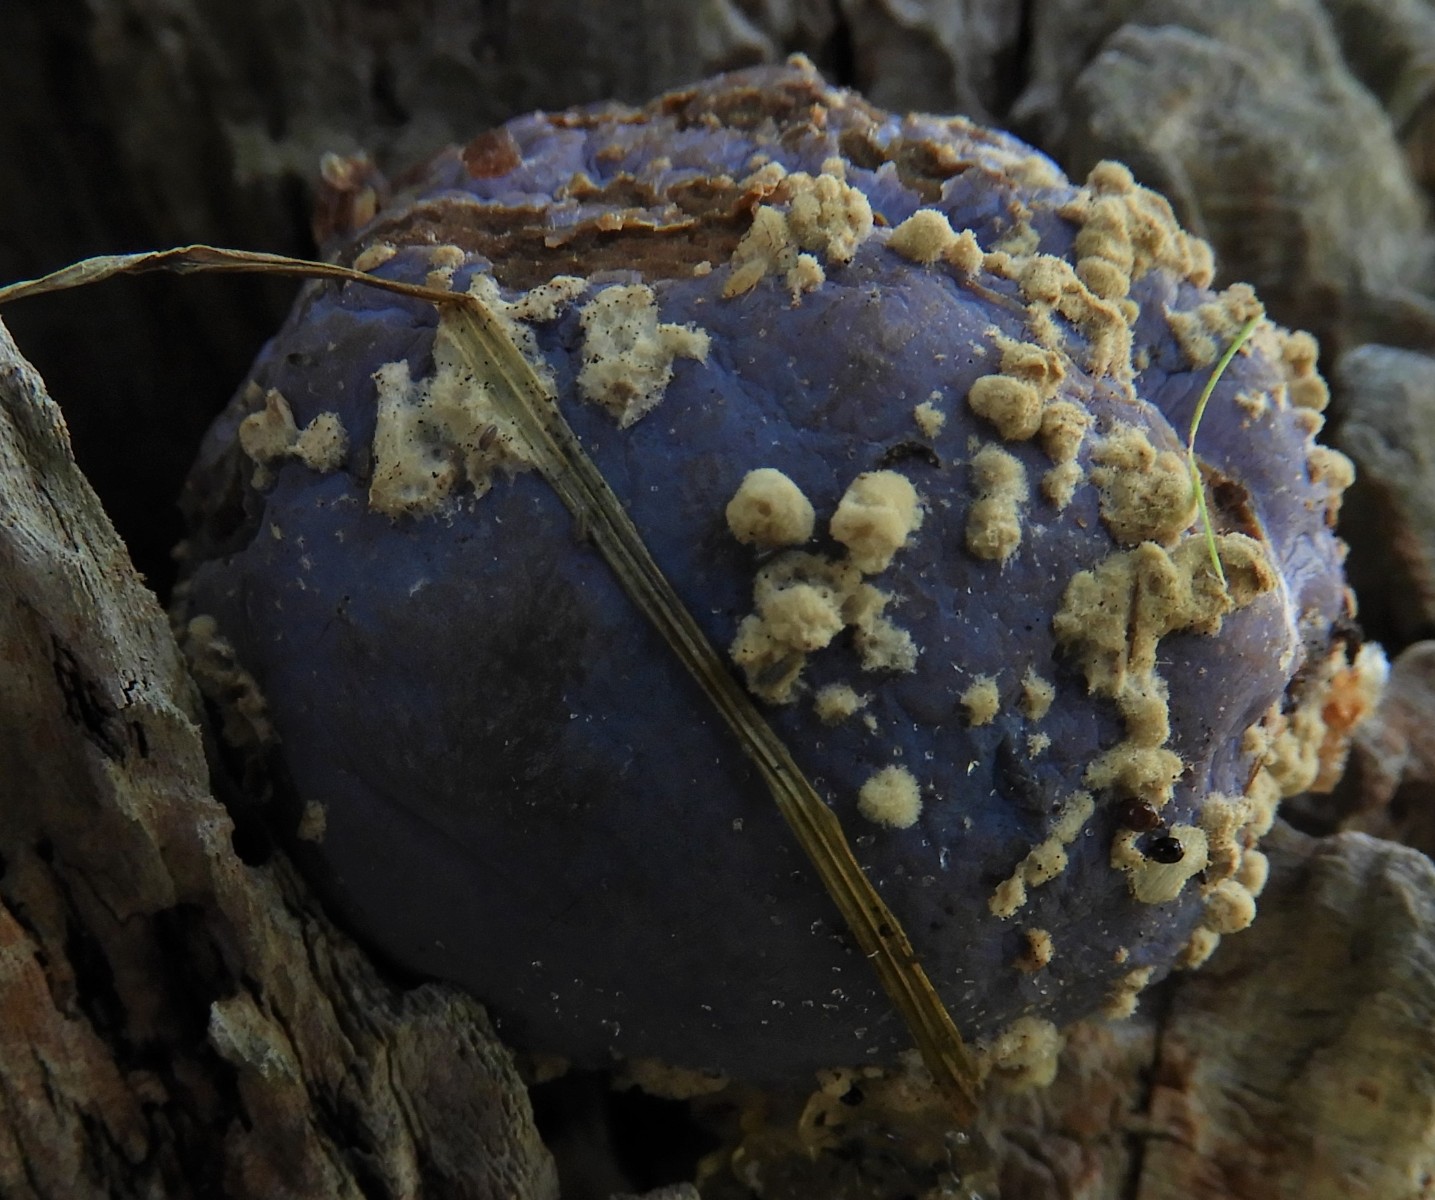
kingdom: Fungi
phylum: Ascomycota
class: Leotiomycetes
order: Helotiales
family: Sclerotiniaceae
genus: Monilinia
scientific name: Monilinia fructigena
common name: æble-knoldskive
